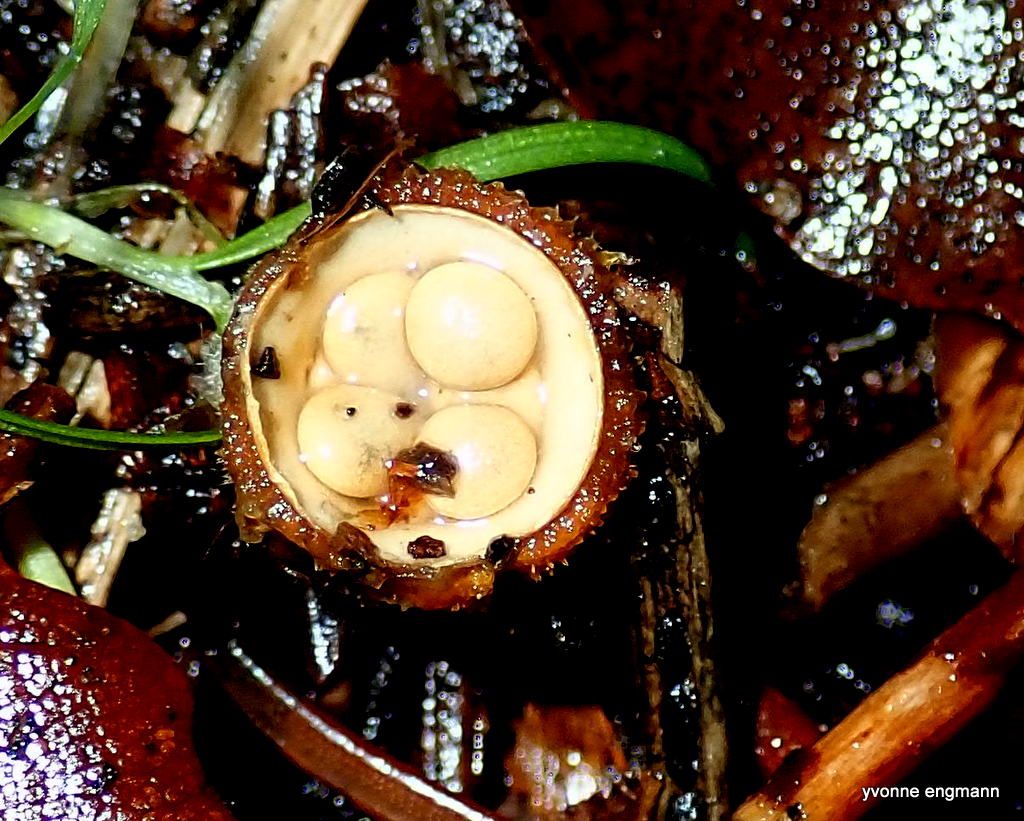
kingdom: Fungi
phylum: Basidiomycota
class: Agaricomycetes
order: Agaricales
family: Nidulariaceae
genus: Crucibulum
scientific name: Crucibulum crucibuliforme
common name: krukkesvamp
